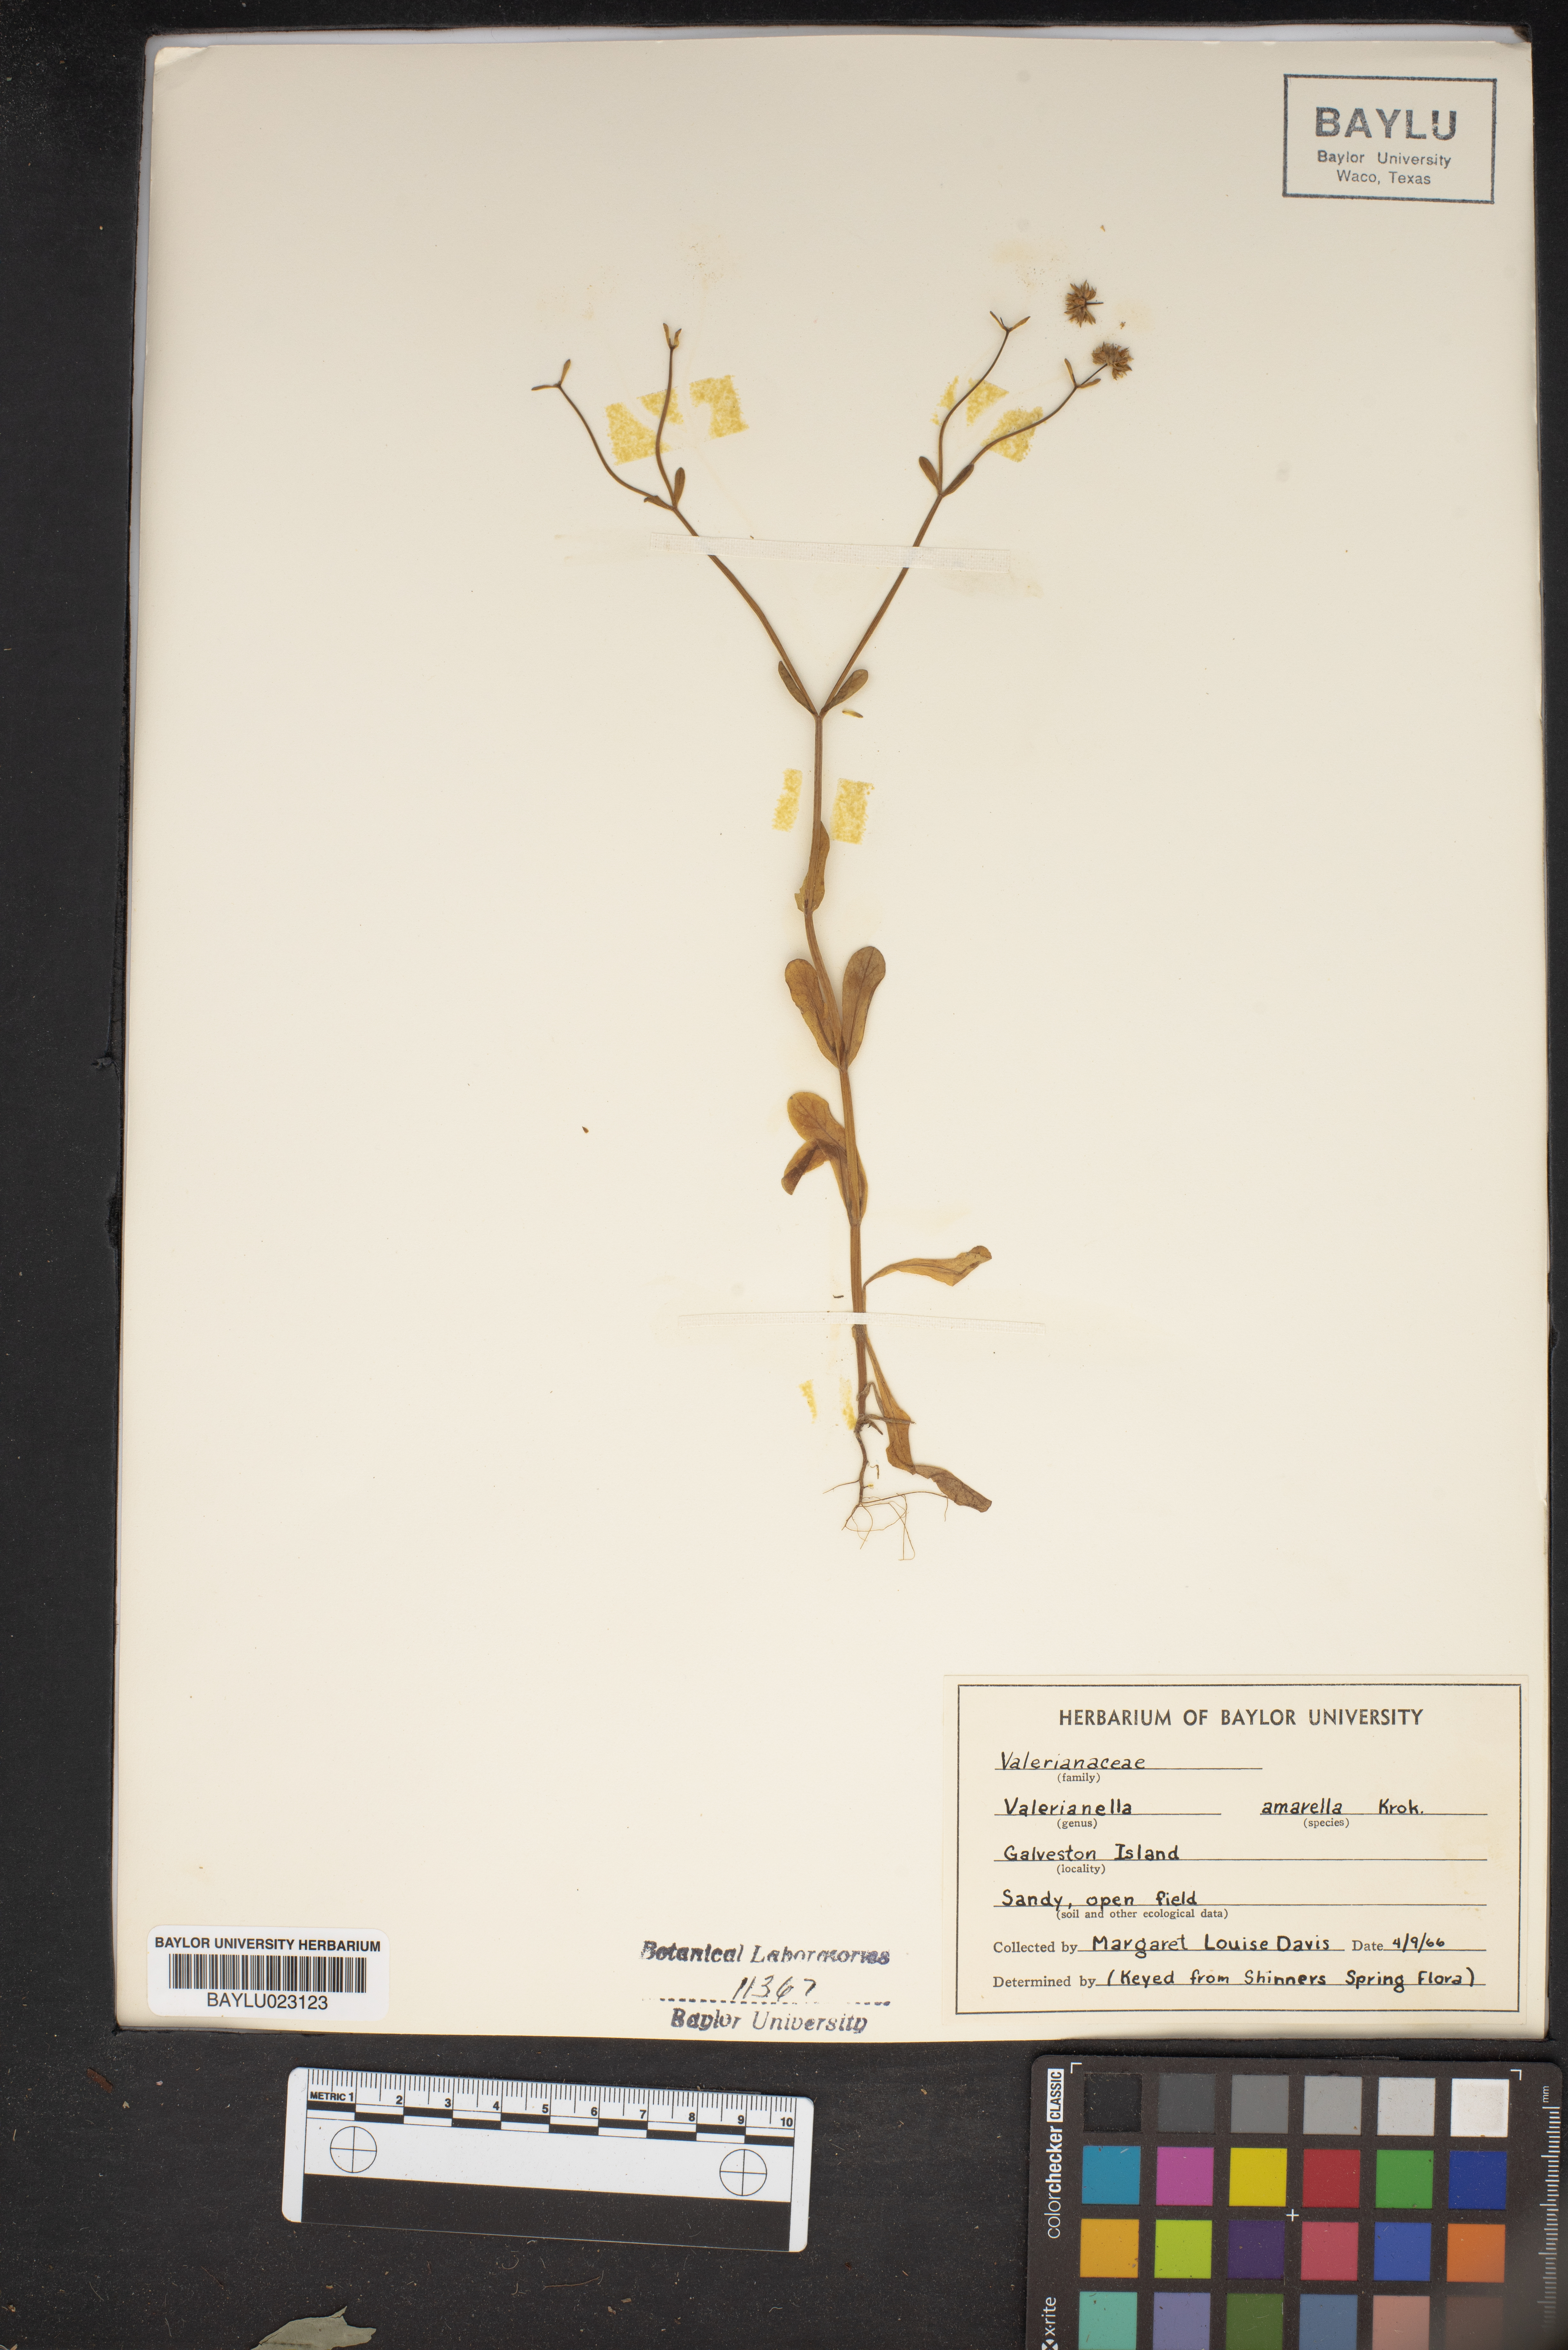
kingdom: Plantae
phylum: Tracheophyta
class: Magnoliopsida
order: Dipsacales
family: Caprifoliaceae
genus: Valerianella
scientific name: Valerianella amarella
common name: Hariy cornsalad
